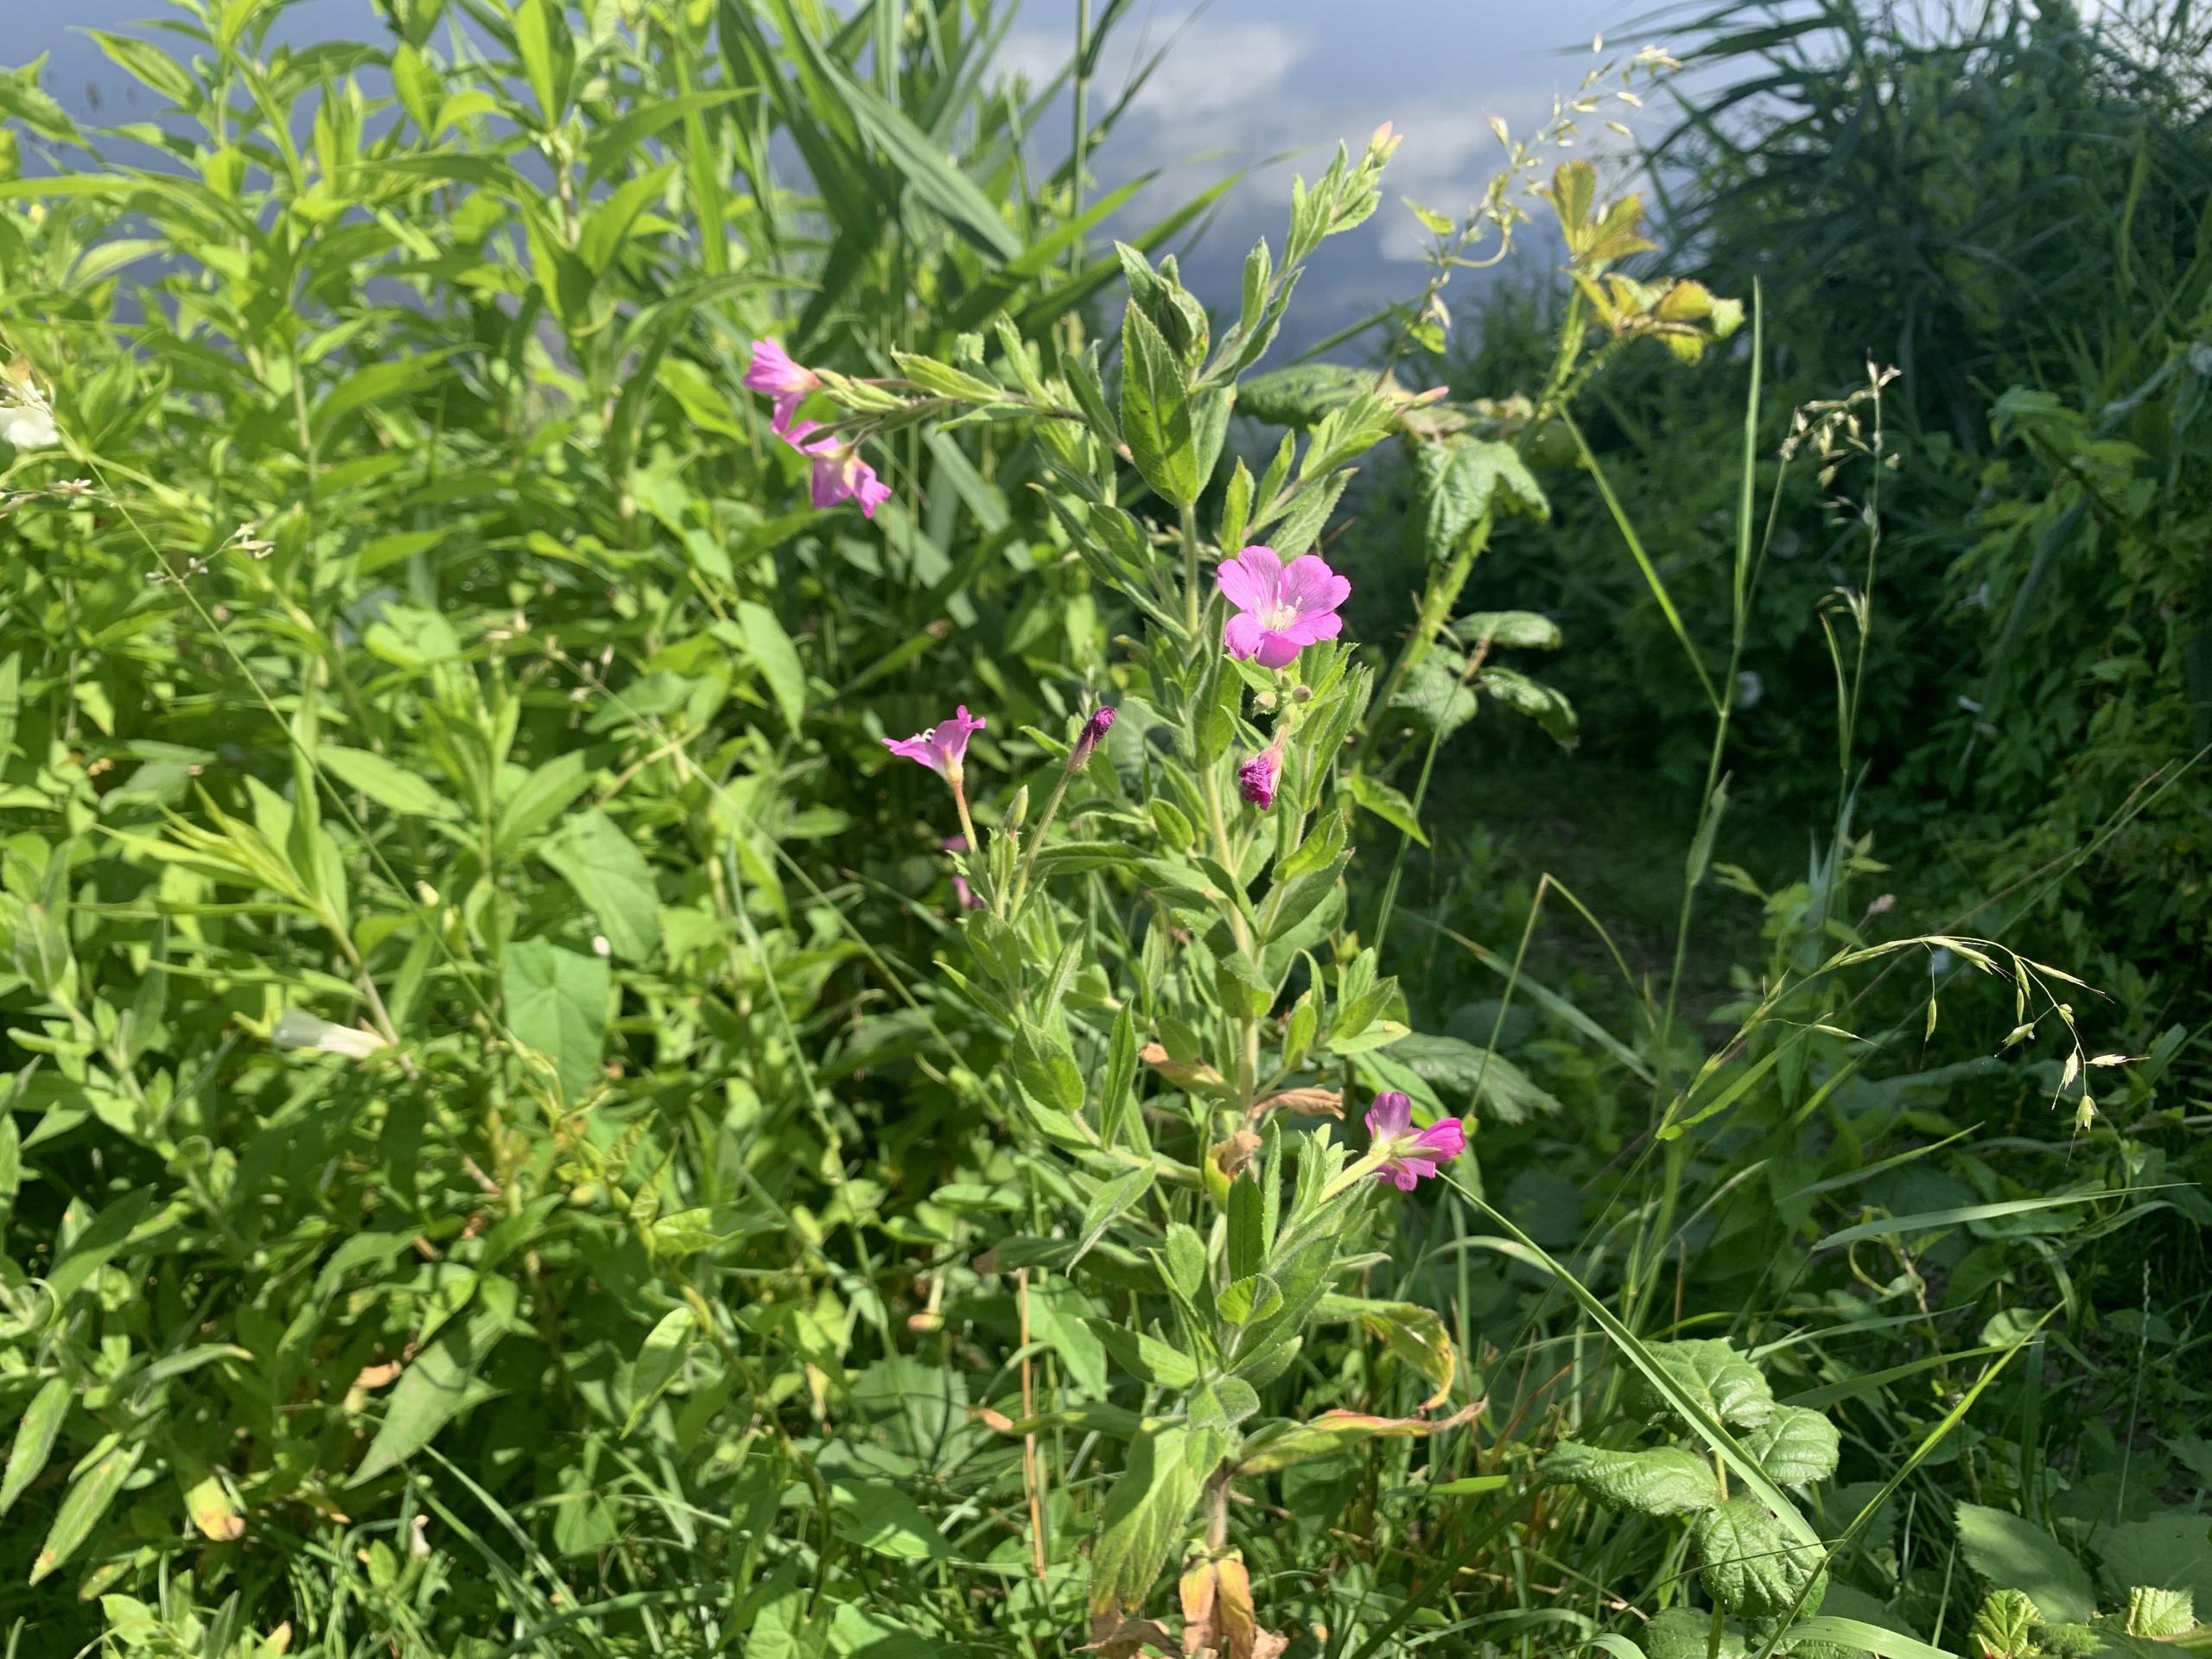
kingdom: Plantae
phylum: Tracheophyta
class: Magnoliopsida
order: Myrtales
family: Onagraceae
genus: Epilobium
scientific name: Epilobium hirsutum
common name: Lådden dueurt
